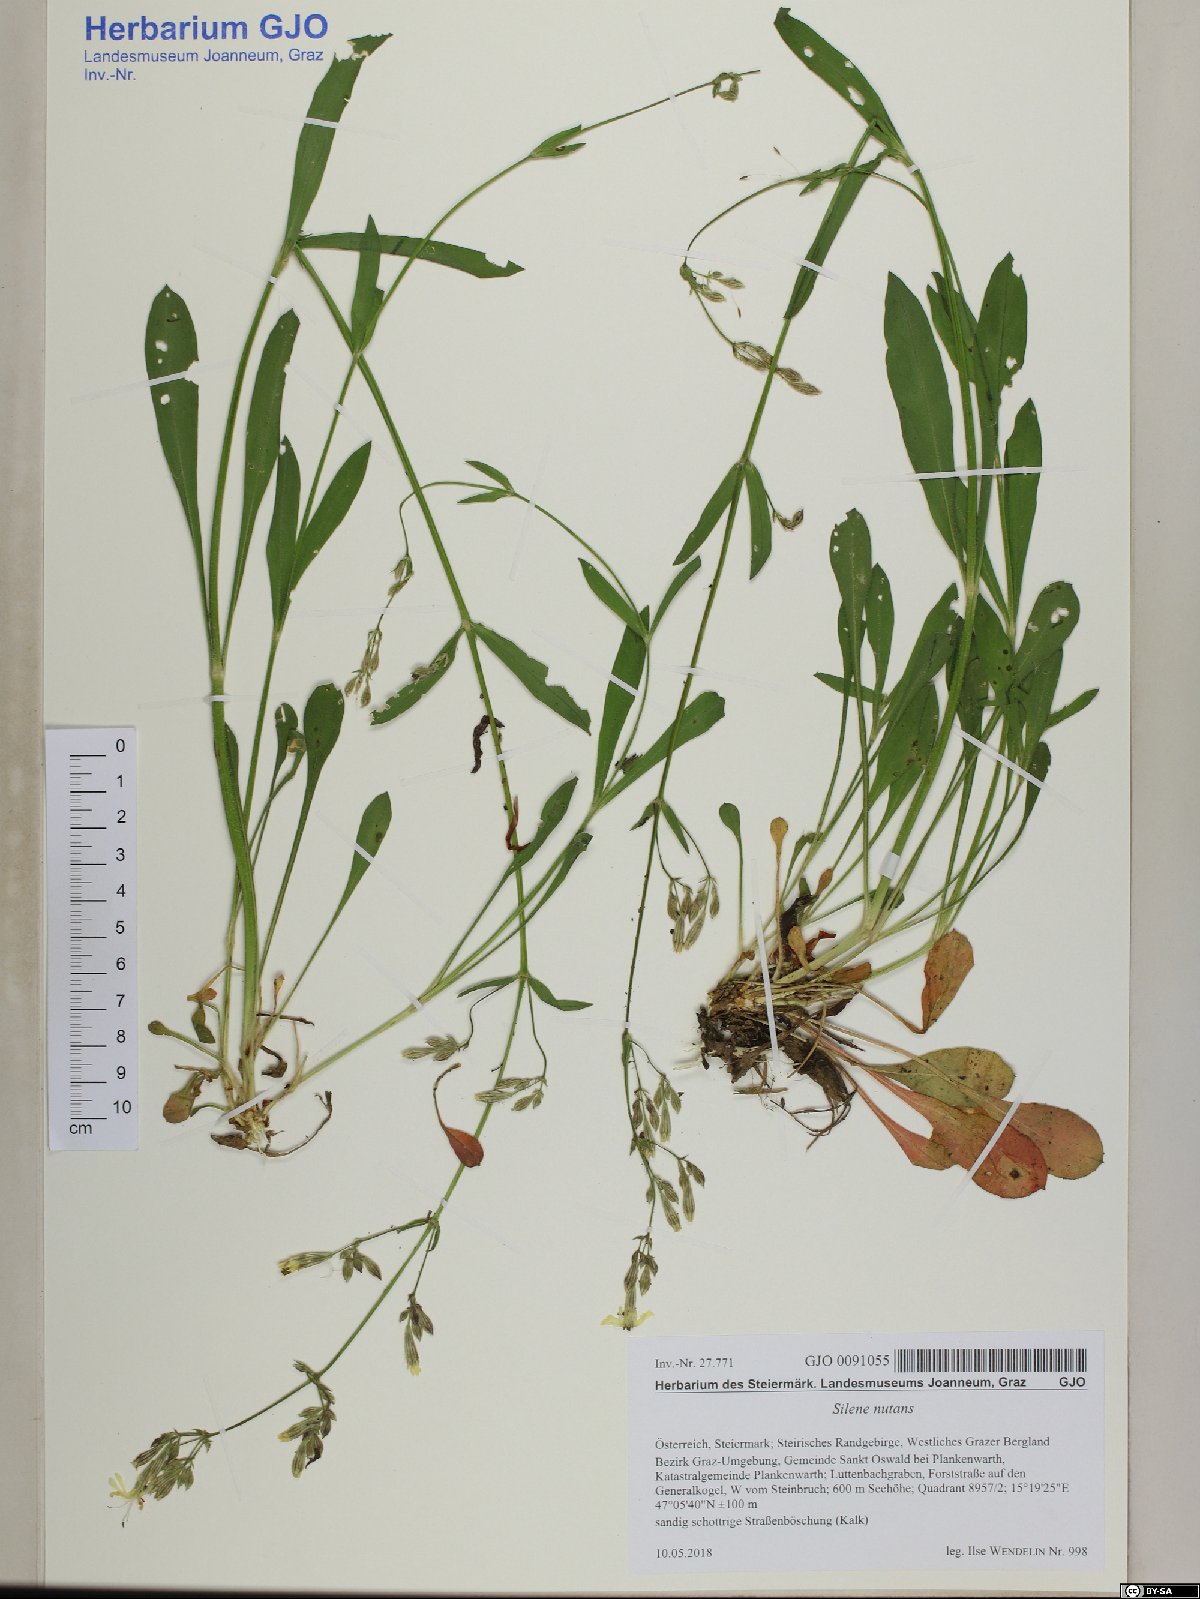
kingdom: Plantae
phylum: Tracheophyta
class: Magnoliopsida
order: Caryophyllales
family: Caryophyllaceae
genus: Silene
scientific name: Silene nutans
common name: Nottingham catchfly
